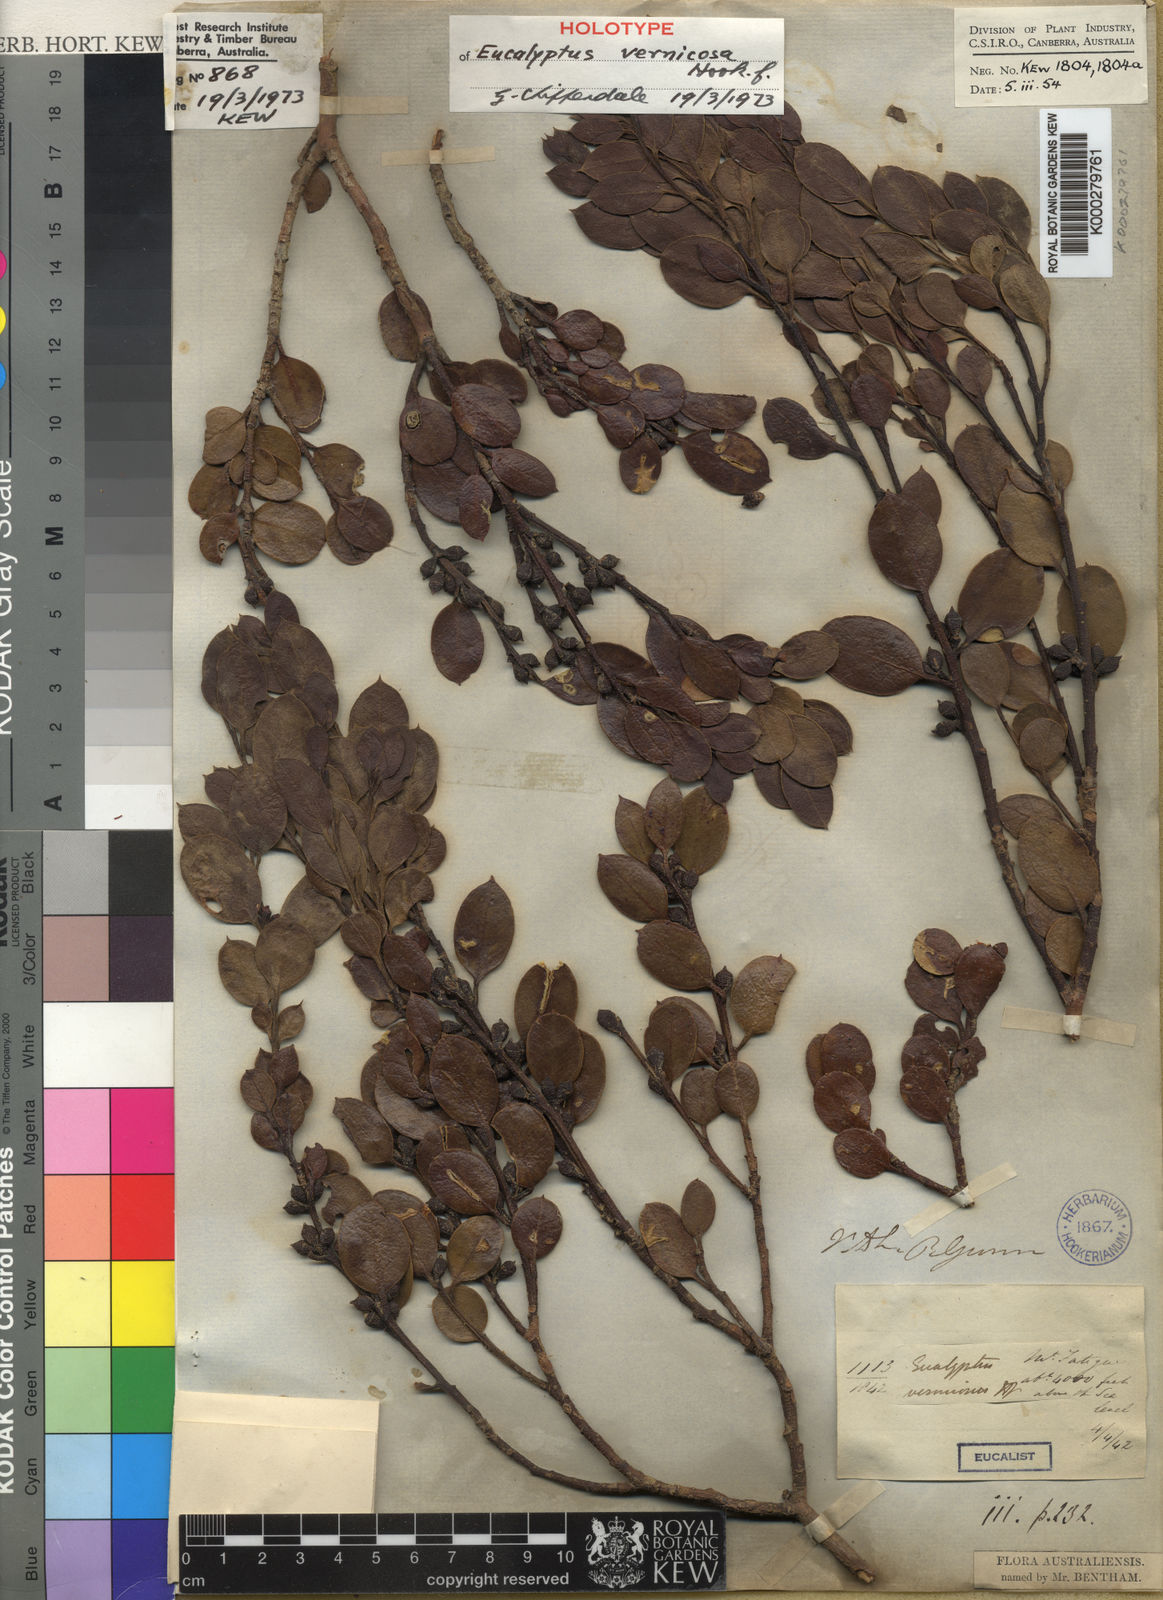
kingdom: Plantae
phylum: Tracheophyta
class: Magnoliopsida
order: Myrtales
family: Myrtaceae
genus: Eucalyptus
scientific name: Eucalyptus vernicosa
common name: Varnished gum
